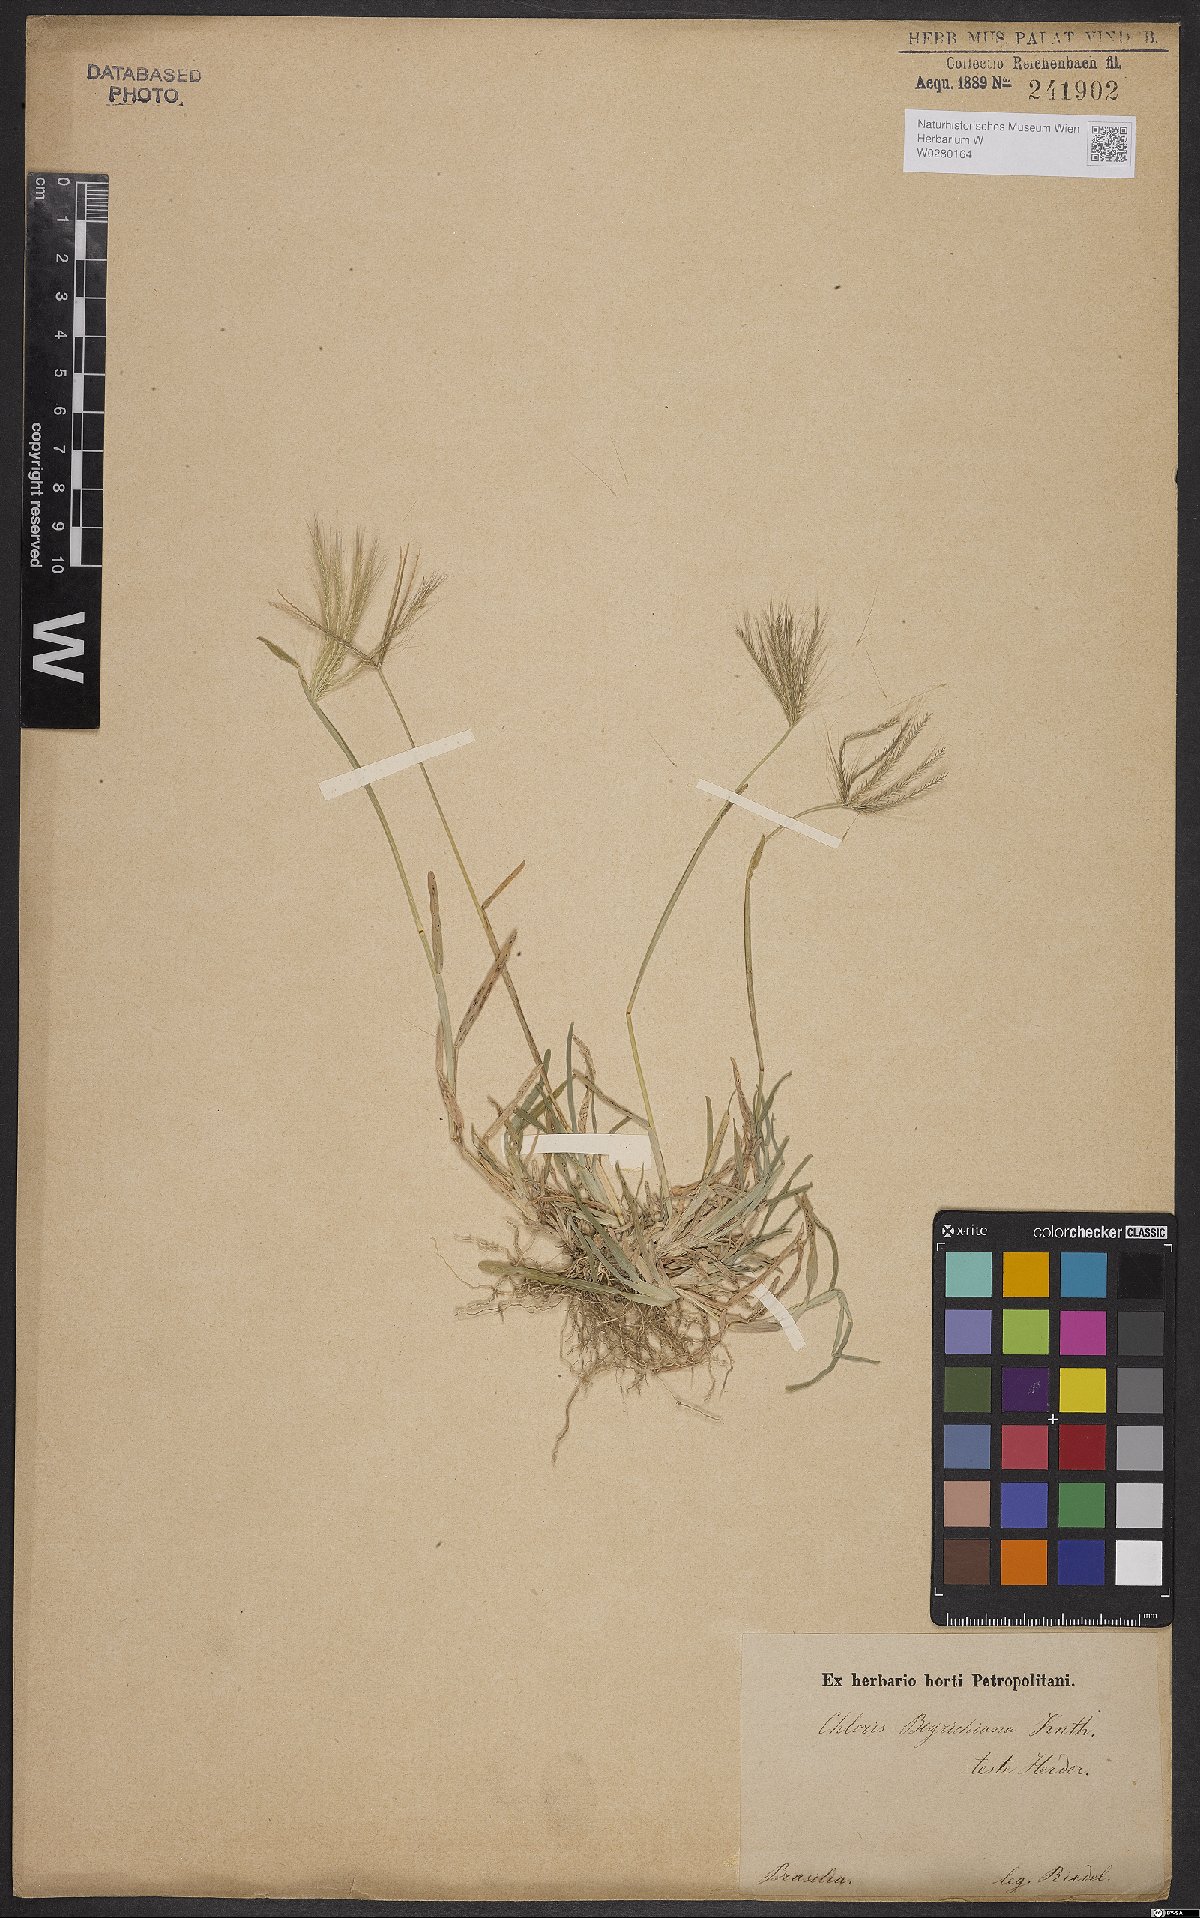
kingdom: Plantae
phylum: Tracheophyta
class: Liliopsida
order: Poales
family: Poaceae
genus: Chloris
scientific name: Chloris pycnothrix
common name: Spiderweb chloris
